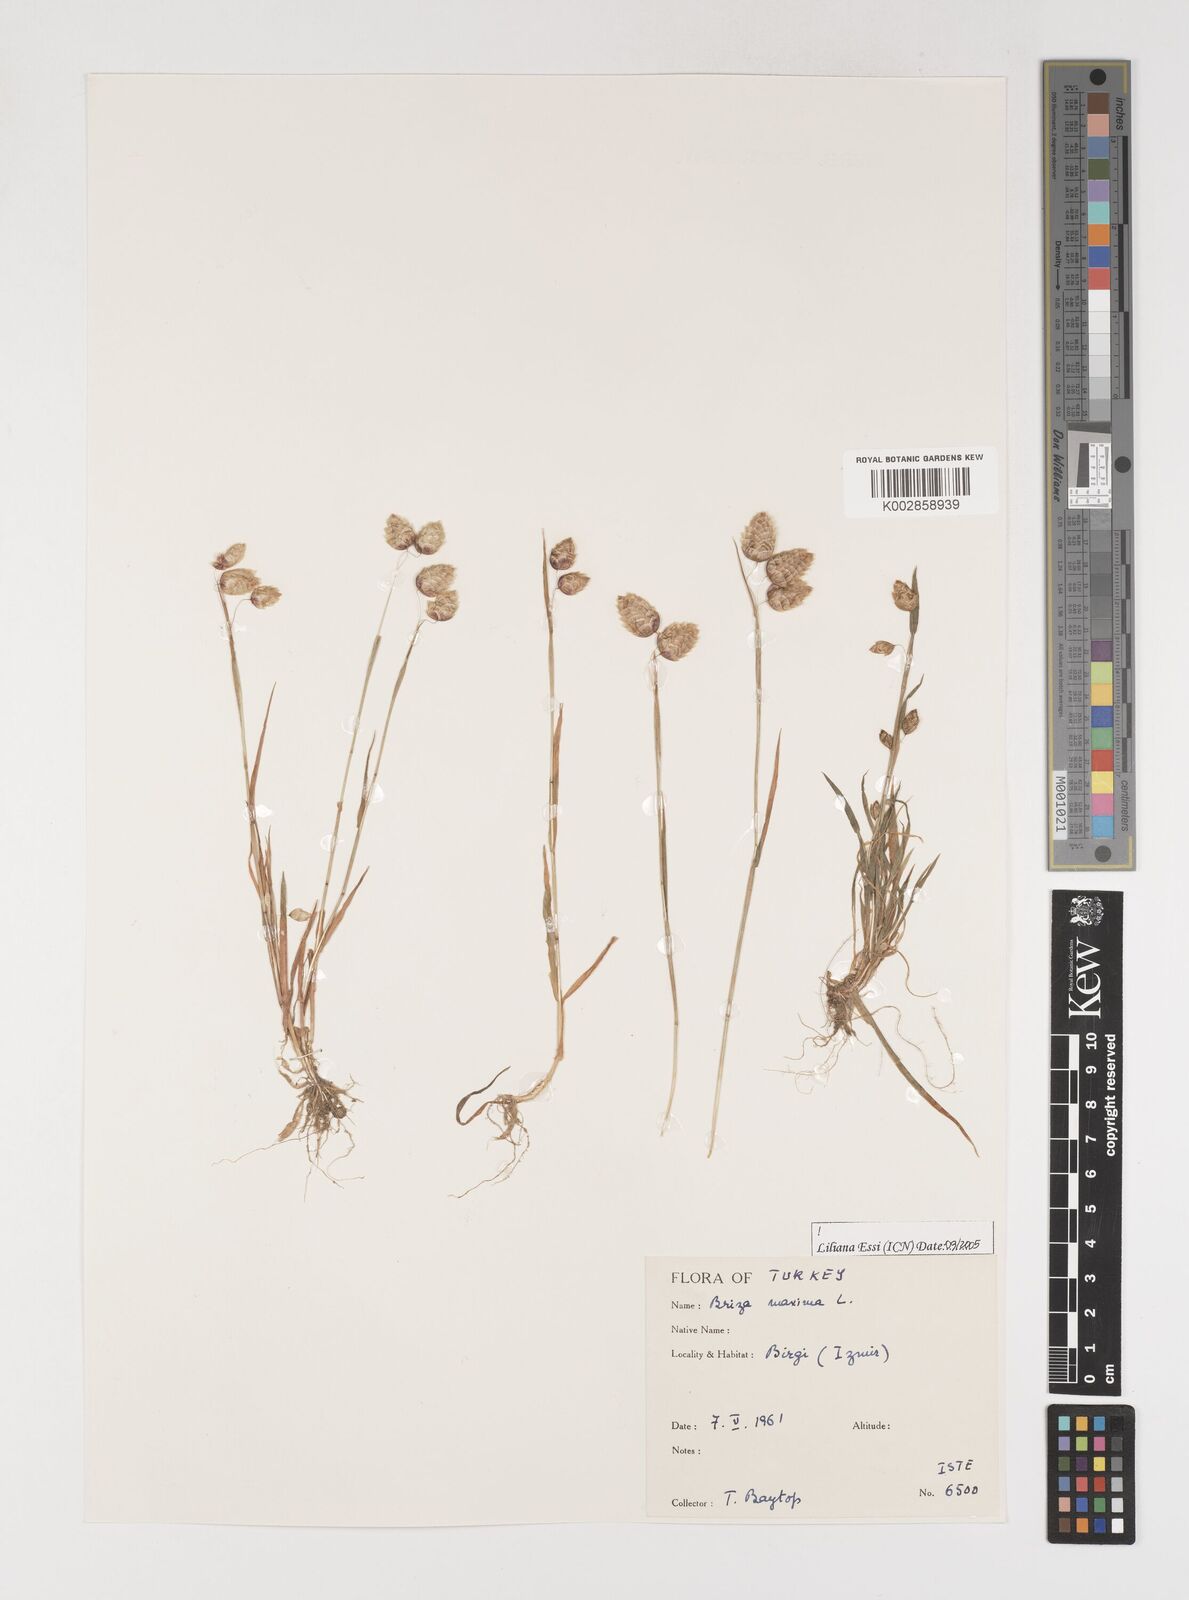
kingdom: Plantae
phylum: Tracheophyta
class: Liliopsida
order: Poales
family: Poaceae
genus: Briza
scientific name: Briza maxima
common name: Big quakinggrass
